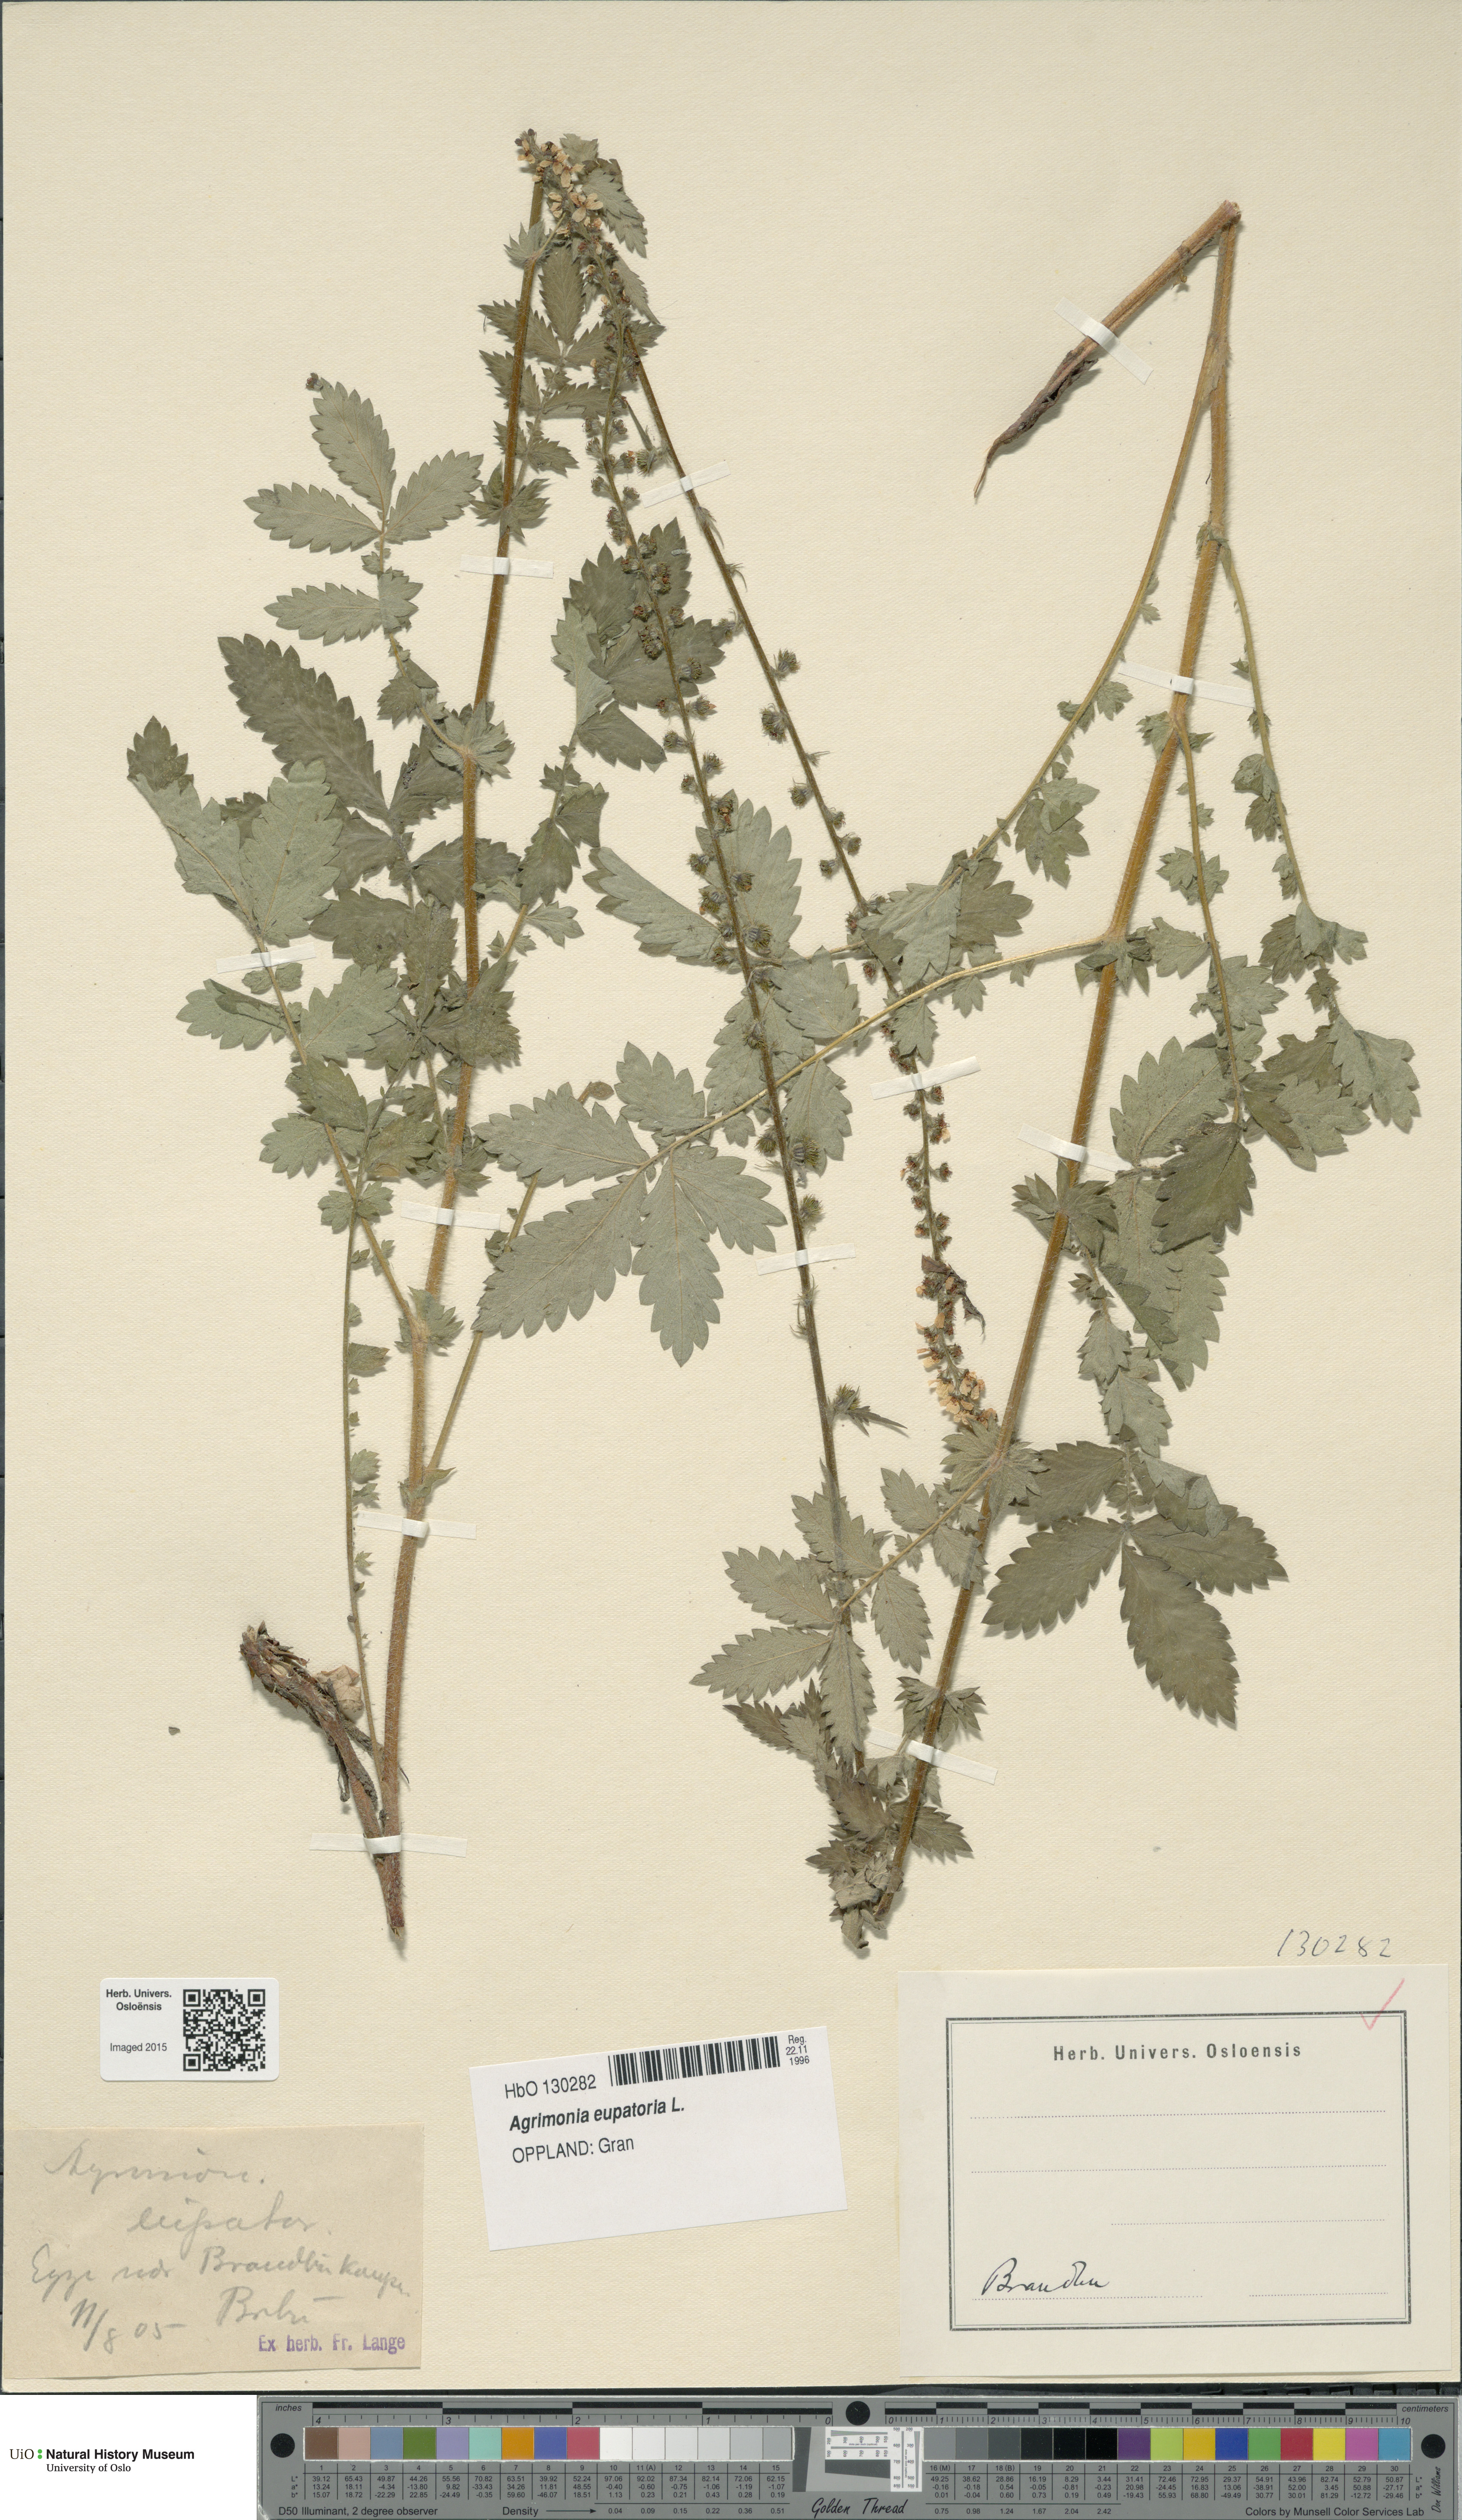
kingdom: Plantae
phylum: Tracheophyta
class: Magnoliopsida
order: Rosales
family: Rosaceae
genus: Agrimonia
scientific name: Agrimonia eupatoria
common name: Agrimony
